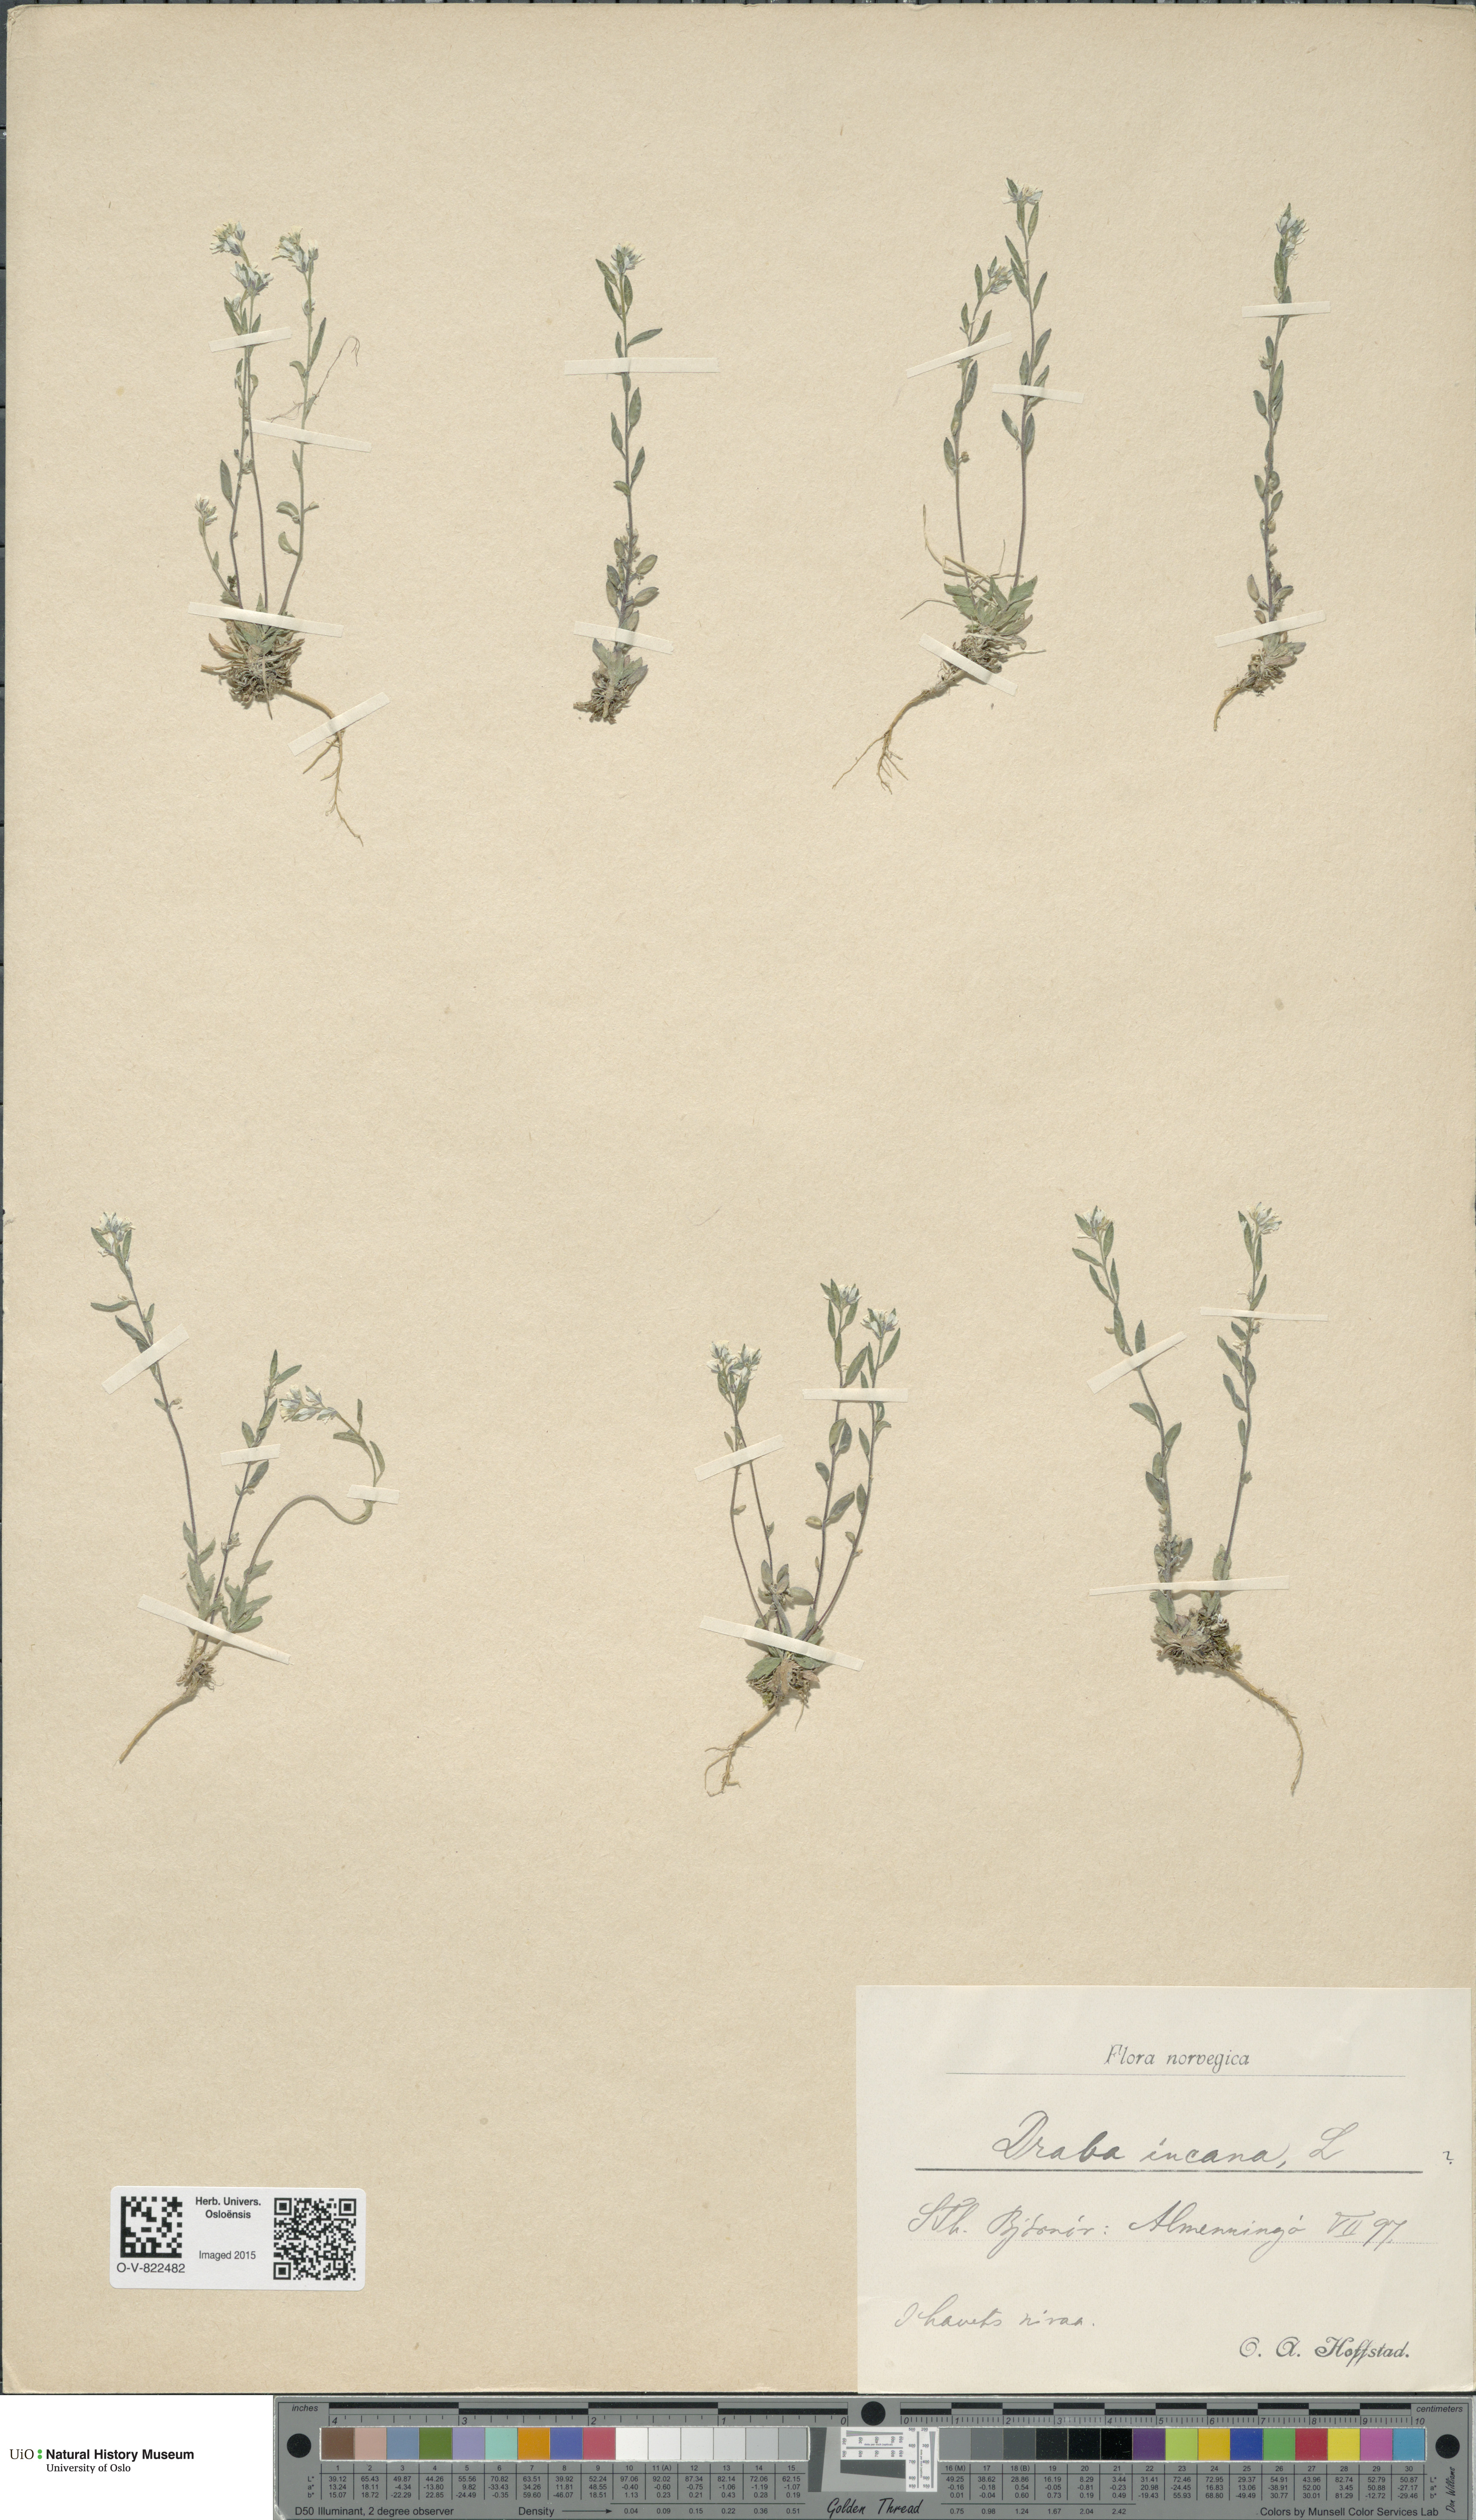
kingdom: Plantae
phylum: Tracheophyta
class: Magnoliopsida
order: Brassicales
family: Brassicaceae
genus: Draba
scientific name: Draba incana
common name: Hoary whitlow-grass
